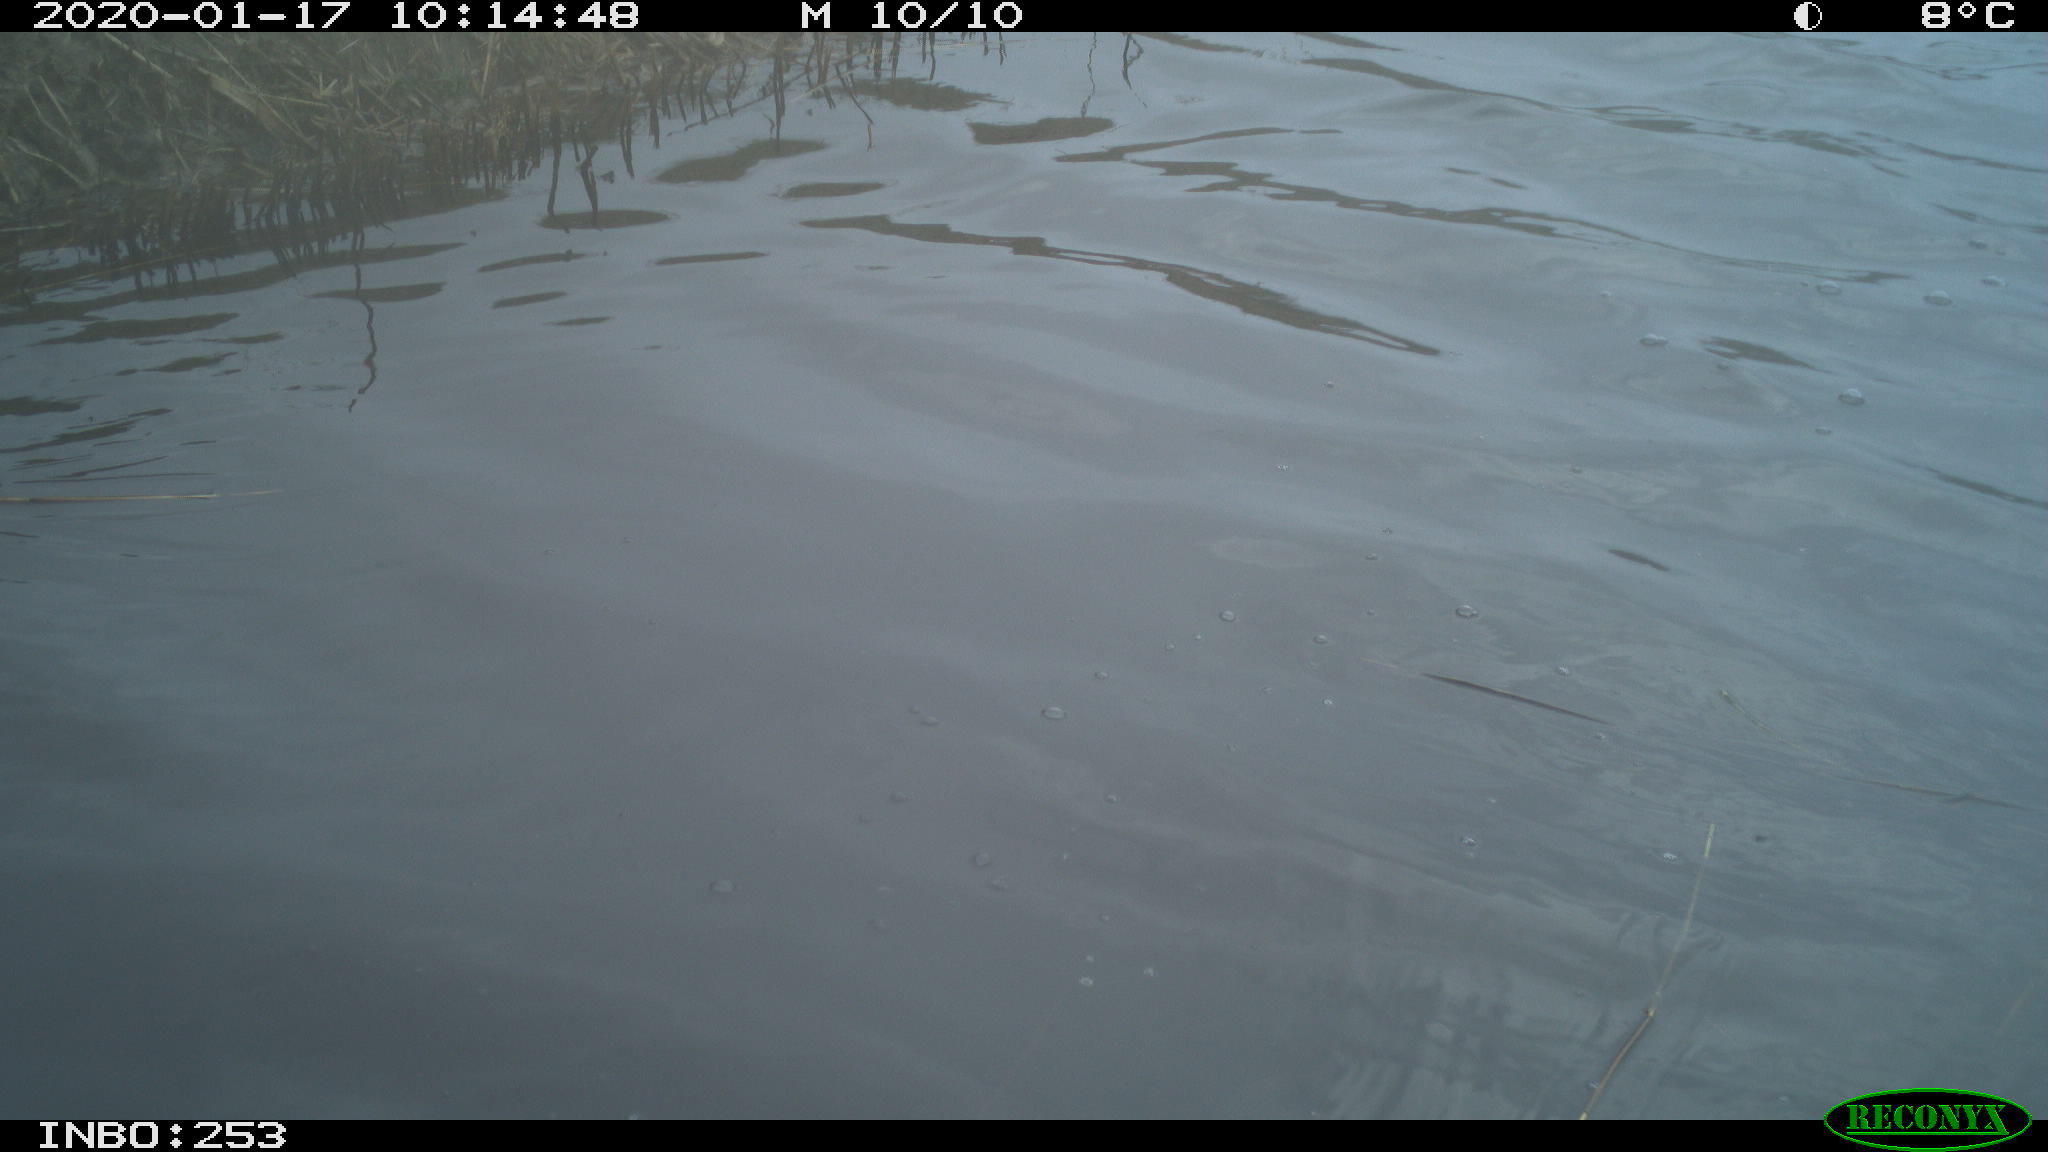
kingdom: Animalia
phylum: Chordata
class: Aves
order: Gruiformes
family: Rallidae
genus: Fulica
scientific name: Fulica atra
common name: Eurasian coot
